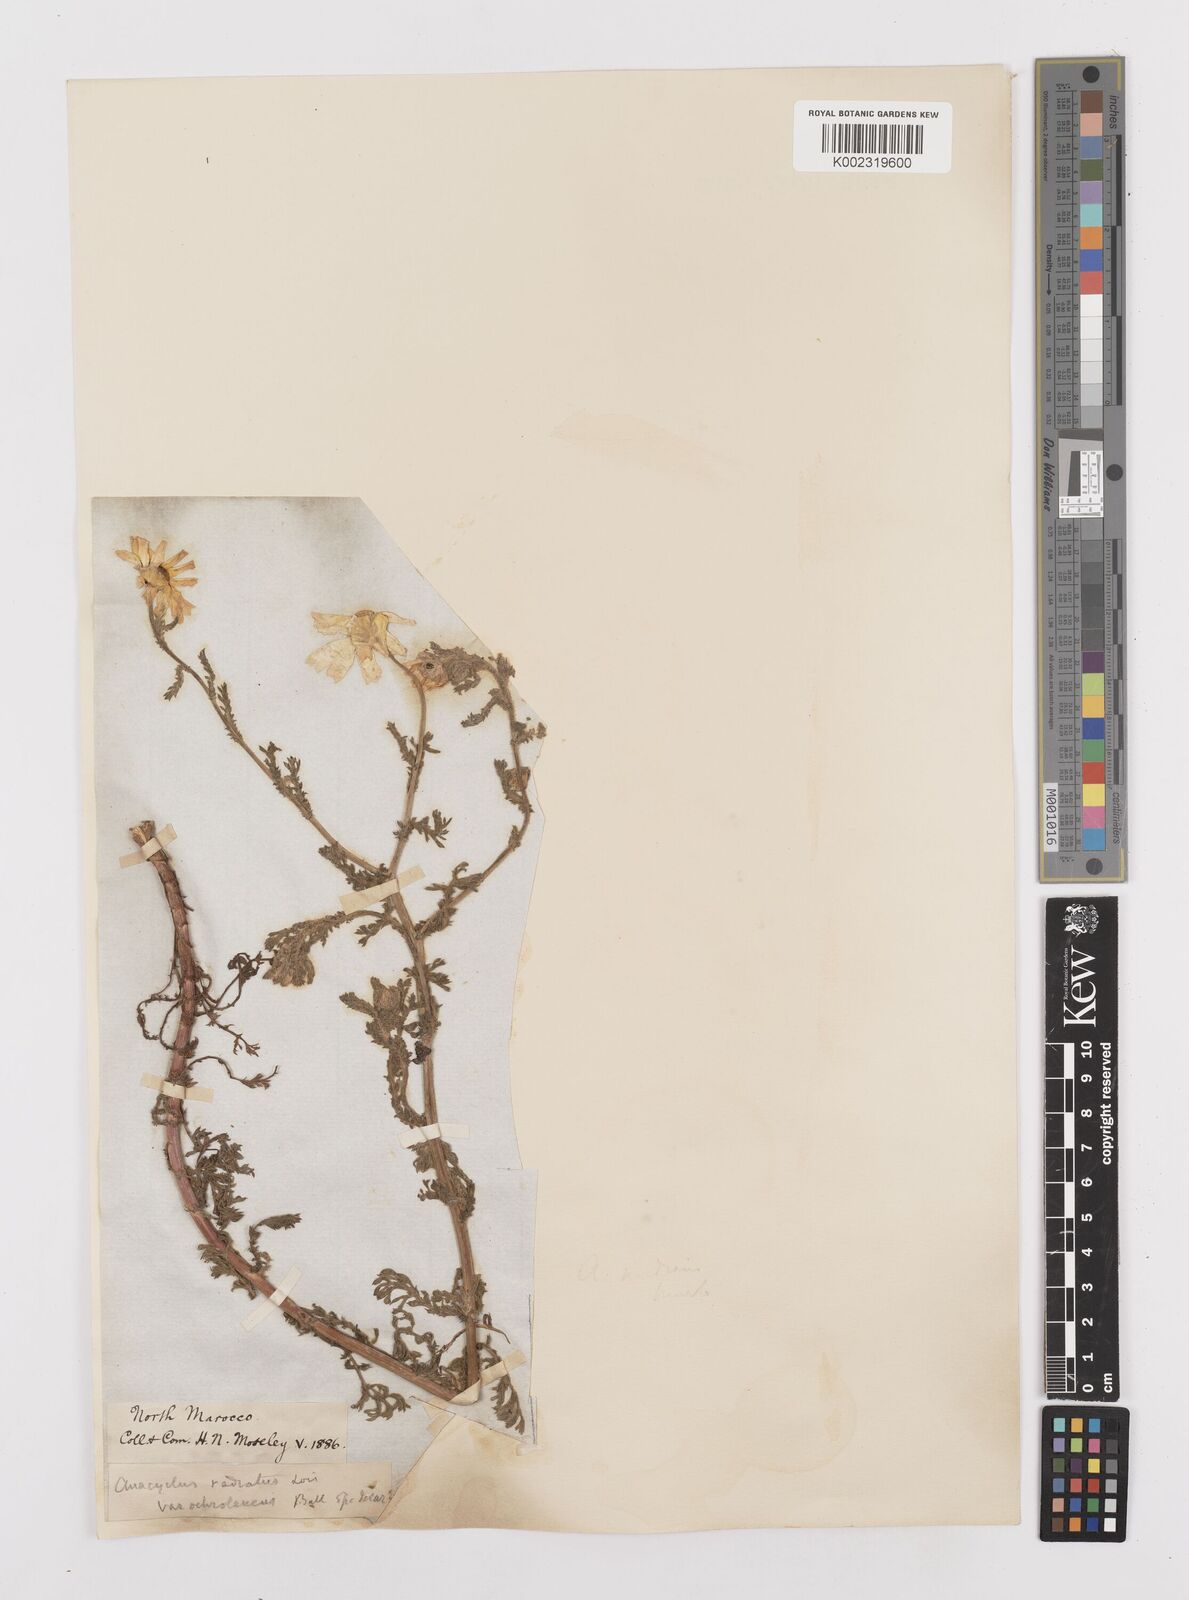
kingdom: Plantae
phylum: Tracheophyta
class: Magnoliopsida
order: Asterales
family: Asteraceae
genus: Anacyclus
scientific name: Anacyclus radiatus
